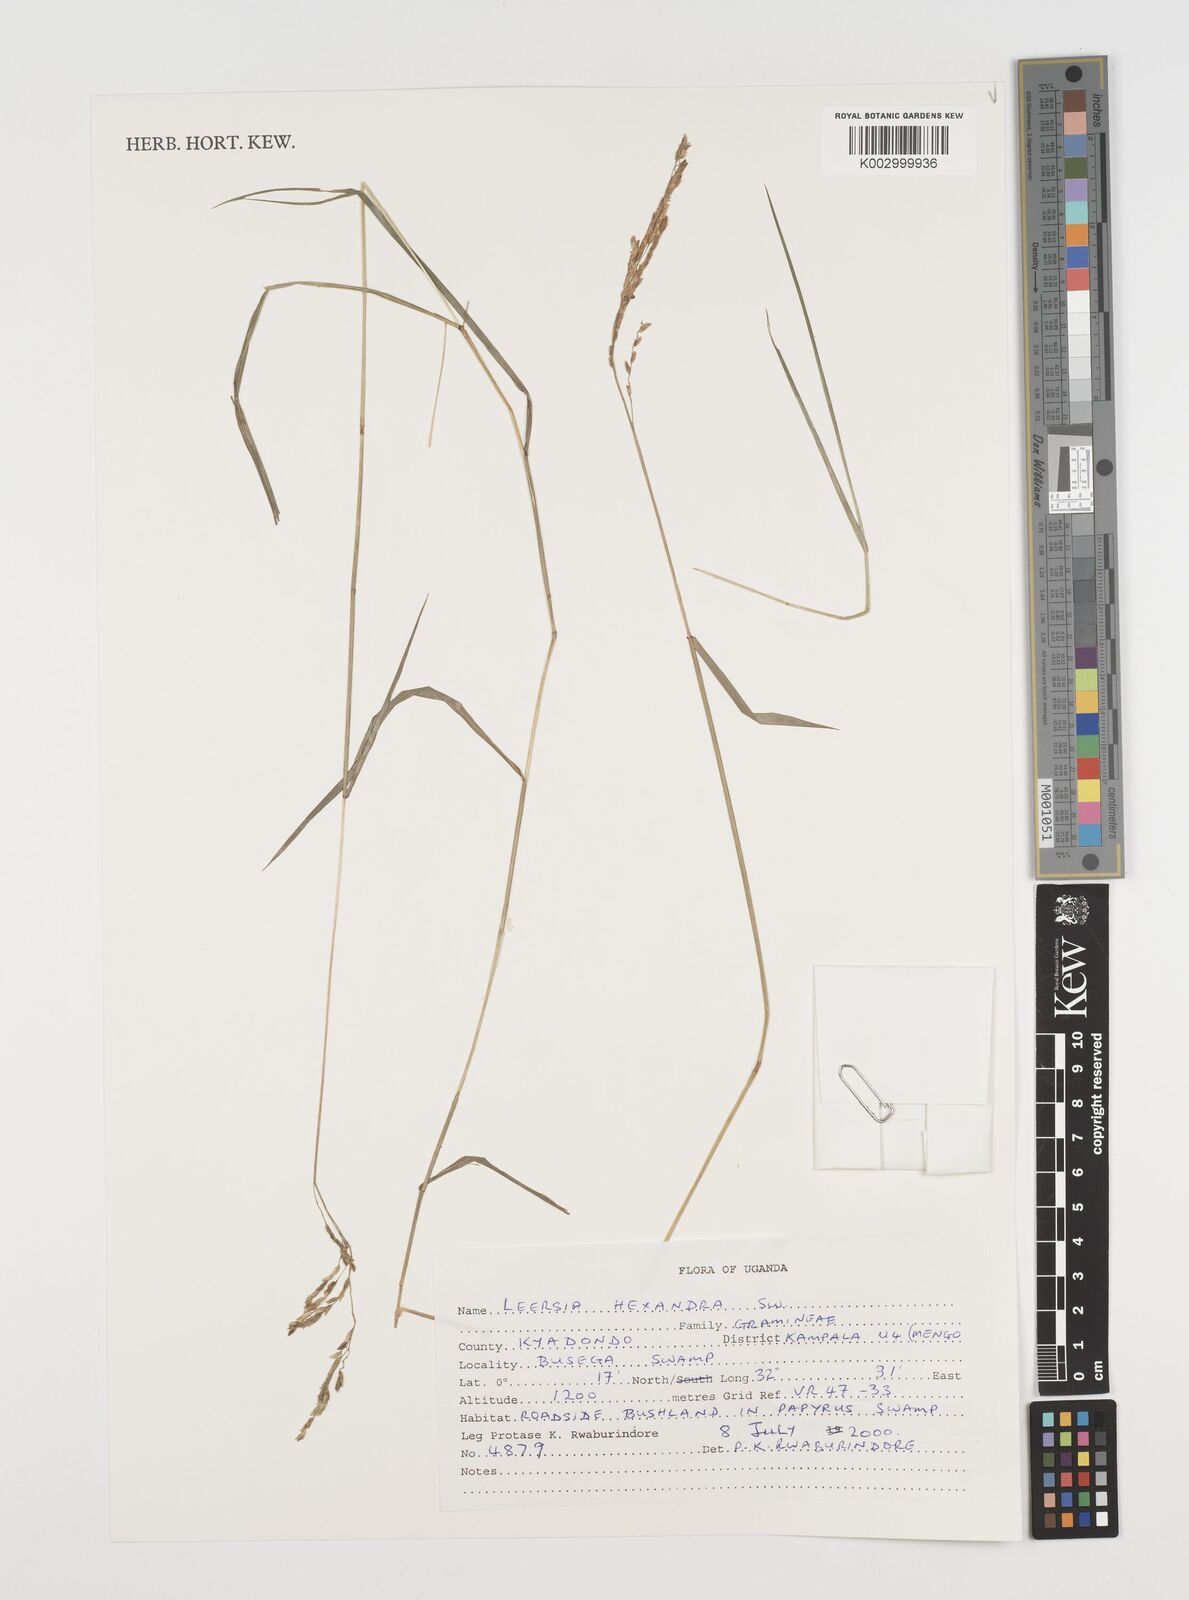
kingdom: Plantae
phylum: Tracheophyta
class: Liliopsida
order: Poales
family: Poaceae
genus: Leersia
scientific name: Leersia hexandra
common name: Southern cut grass
